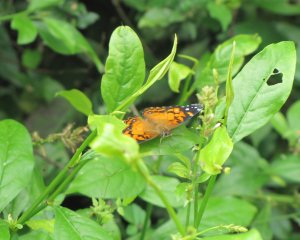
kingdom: Animalia
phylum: Arthropoda
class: Insecta
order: Lepidoptera
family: Nymphalidae
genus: Vanessa
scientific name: Vanessa virginiensis
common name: American Lady
